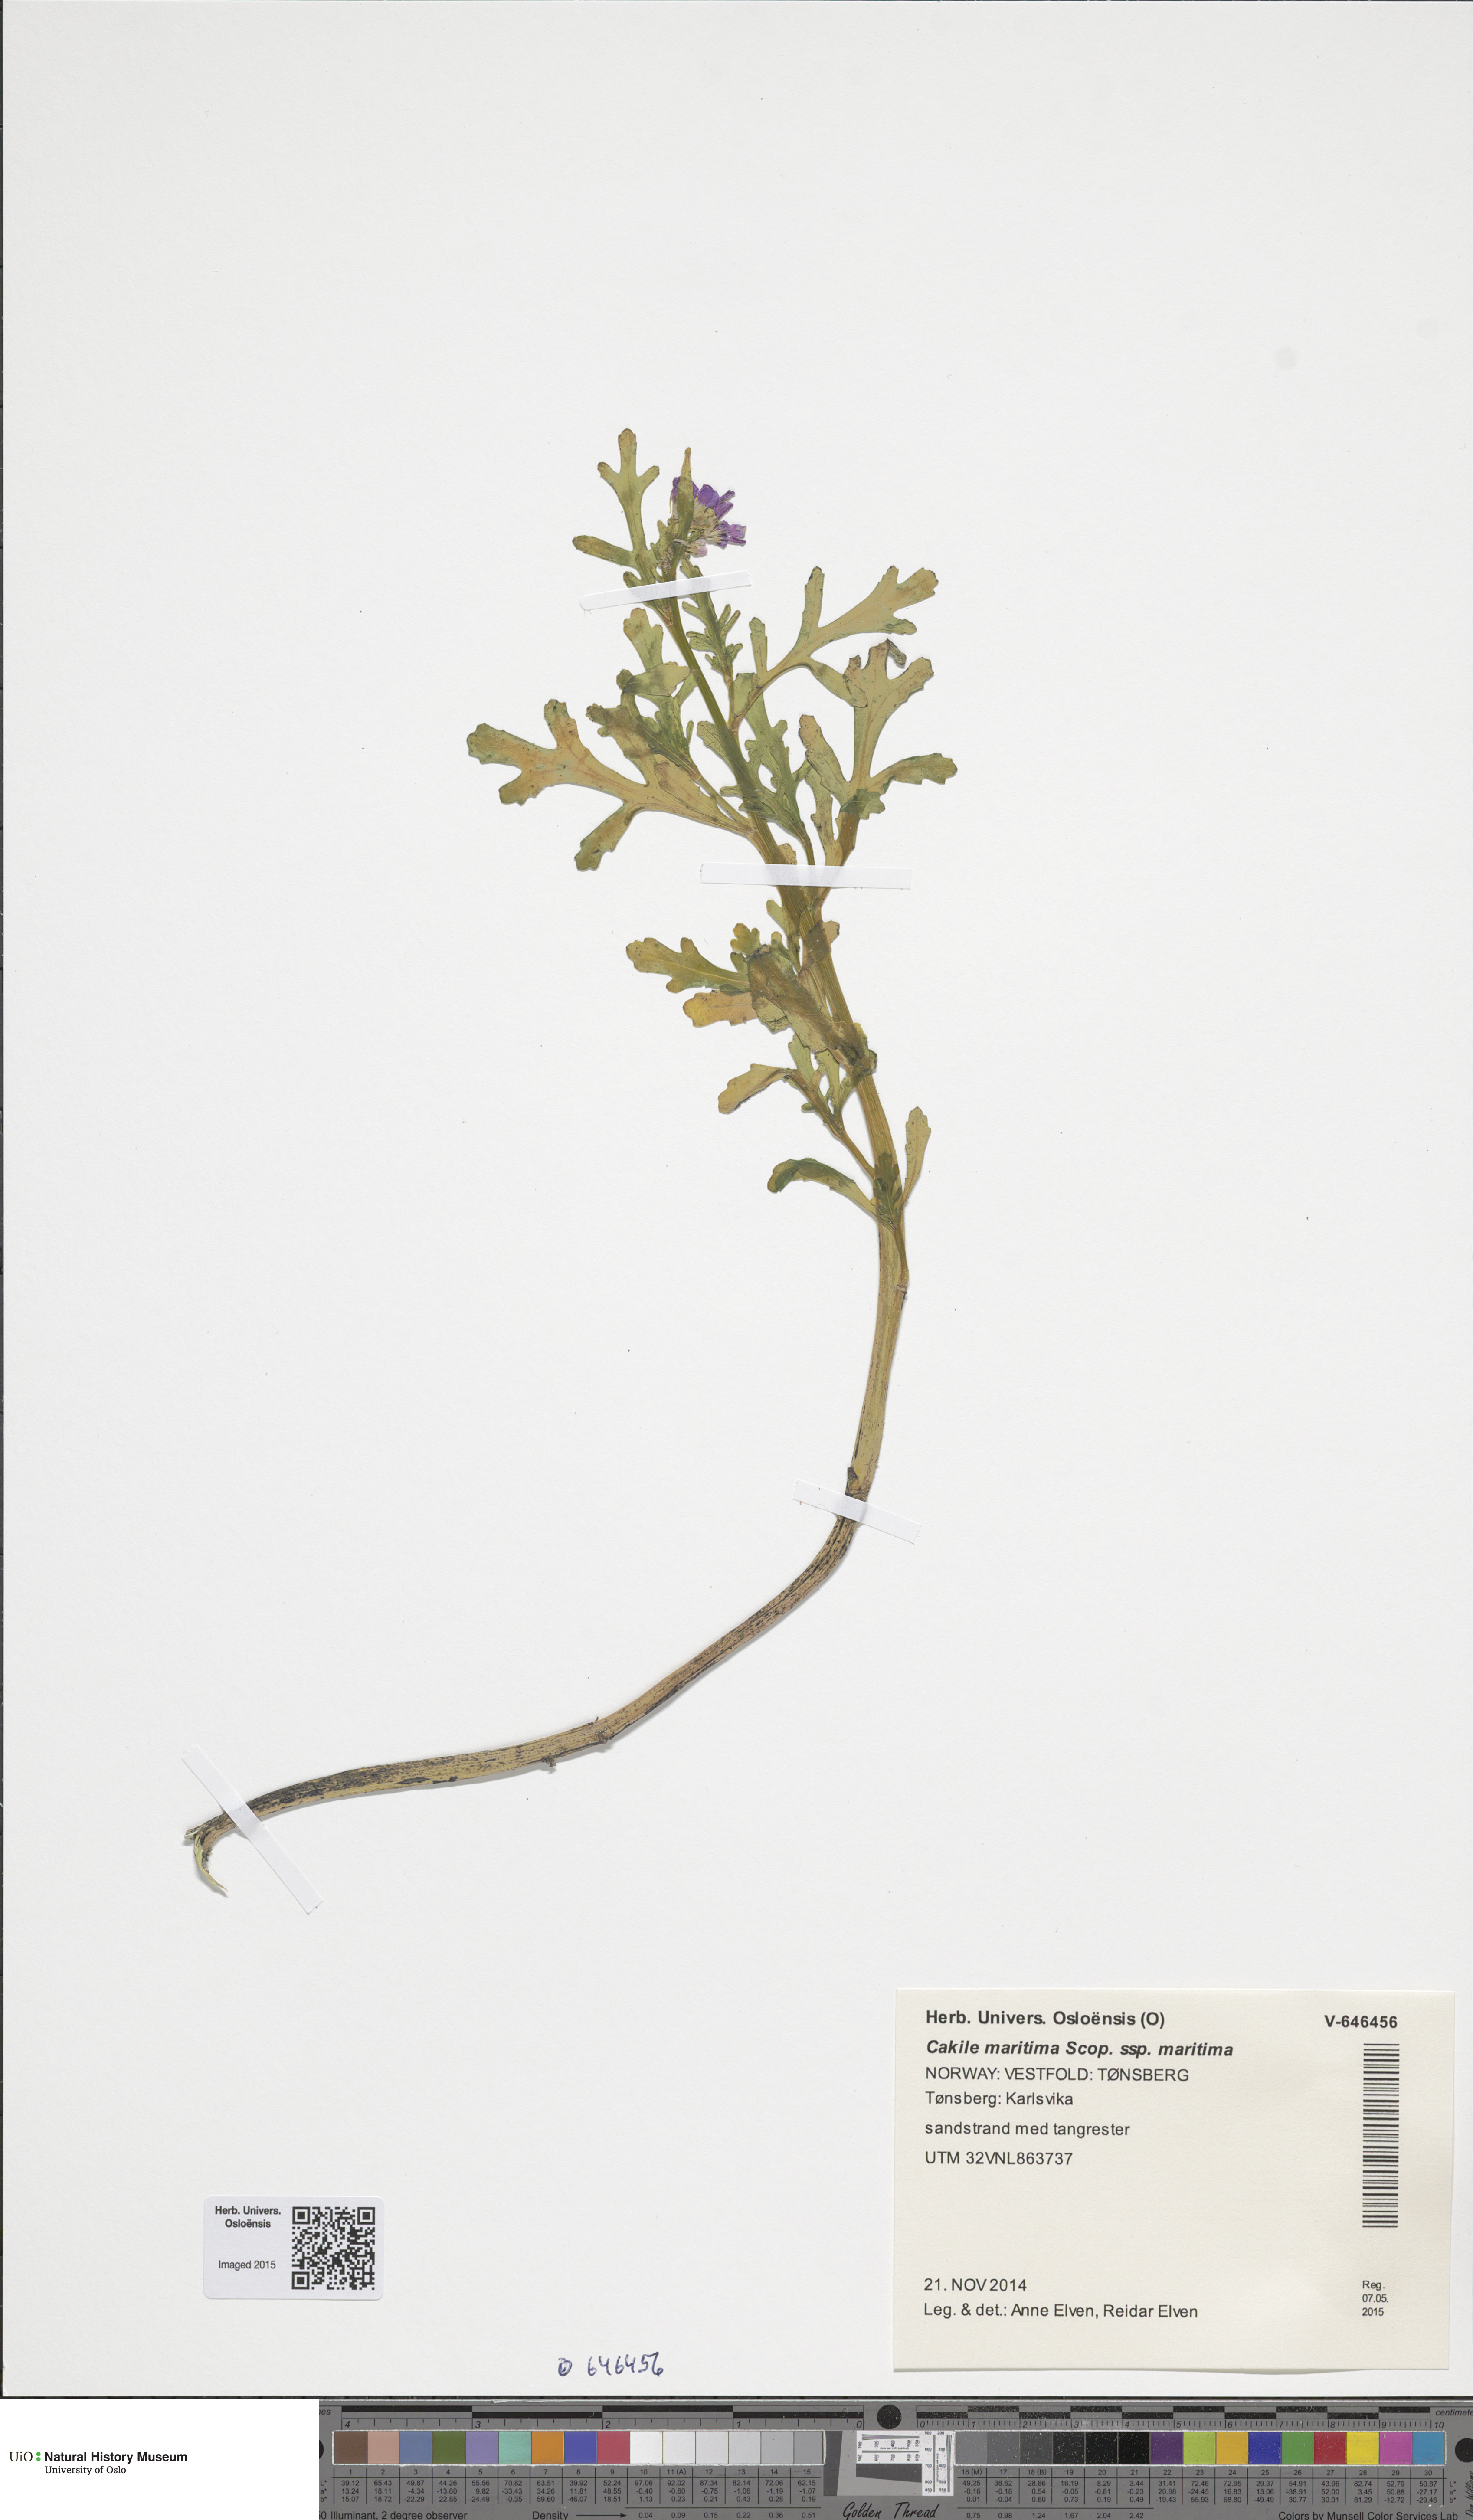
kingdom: Plantae
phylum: Tracheophyta
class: Magnoliopsida
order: Brassicales
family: Brassicaceae
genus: Cakile
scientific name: Cakile maritima
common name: Sea rocket
